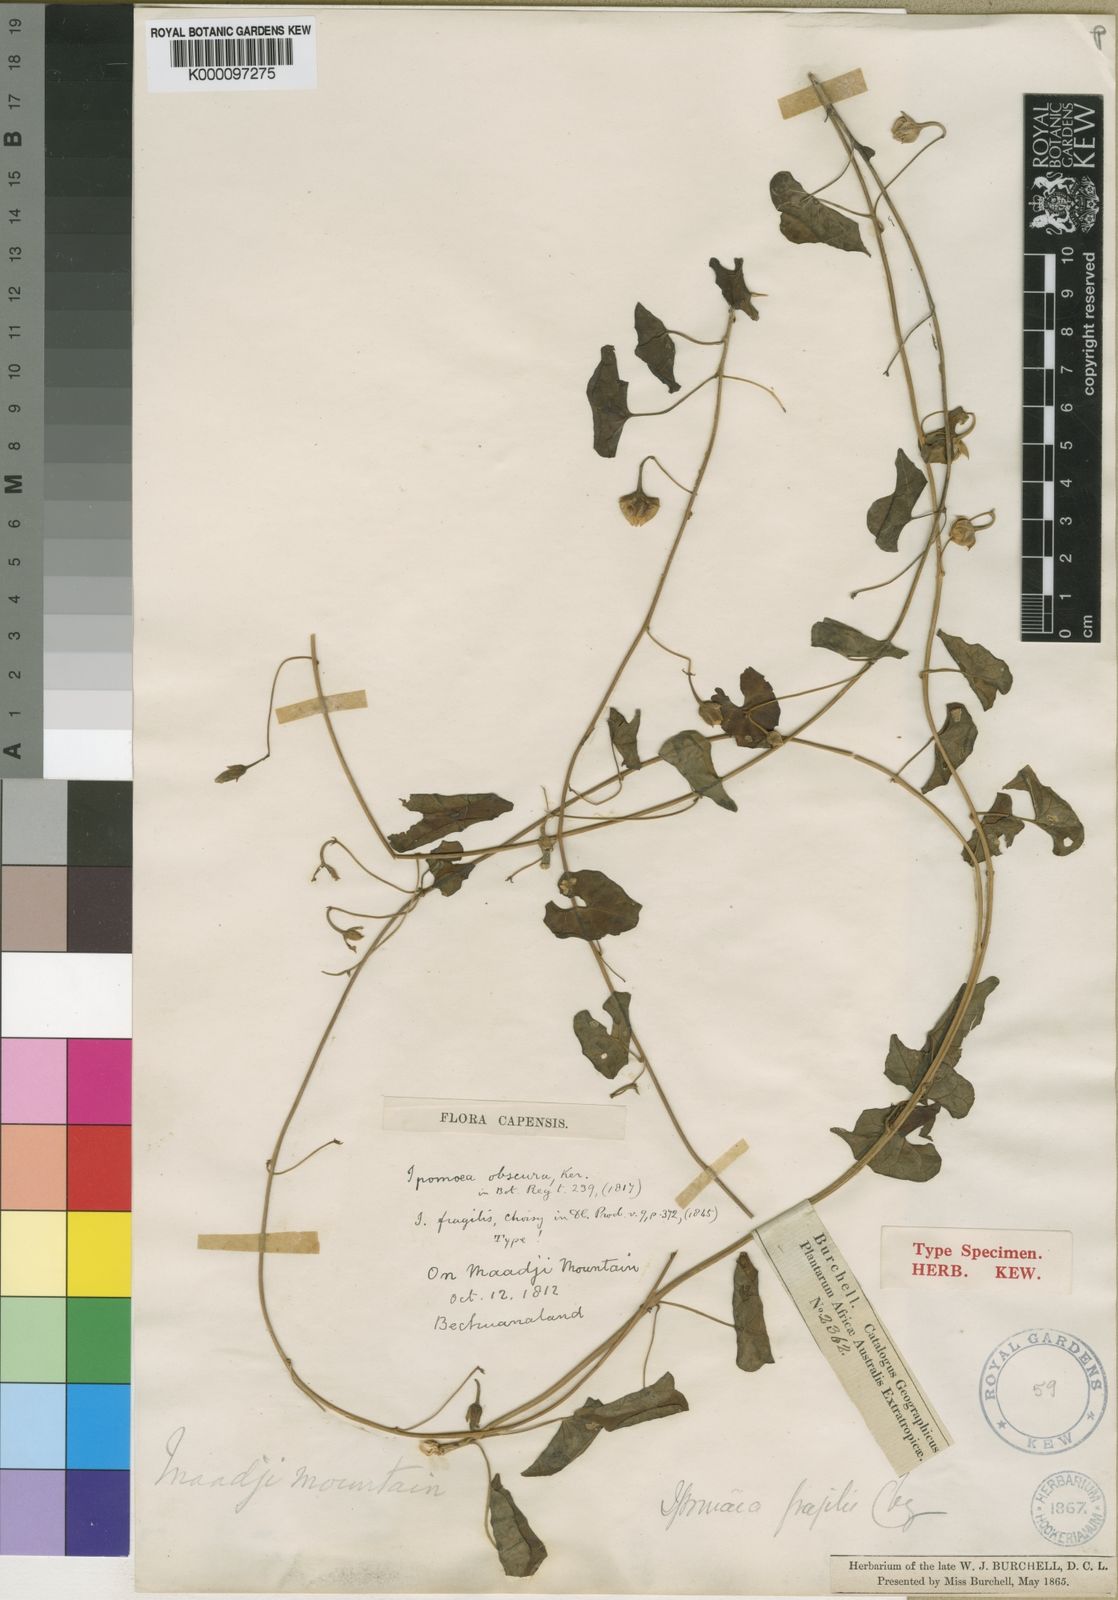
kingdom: Plantae
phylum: Tracheophyta
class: Magnoliopsida
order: Solanales
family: Convolvulaceae
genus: Ipomoea
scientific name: Ipomoea obscura
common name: Obscure morning-glory
